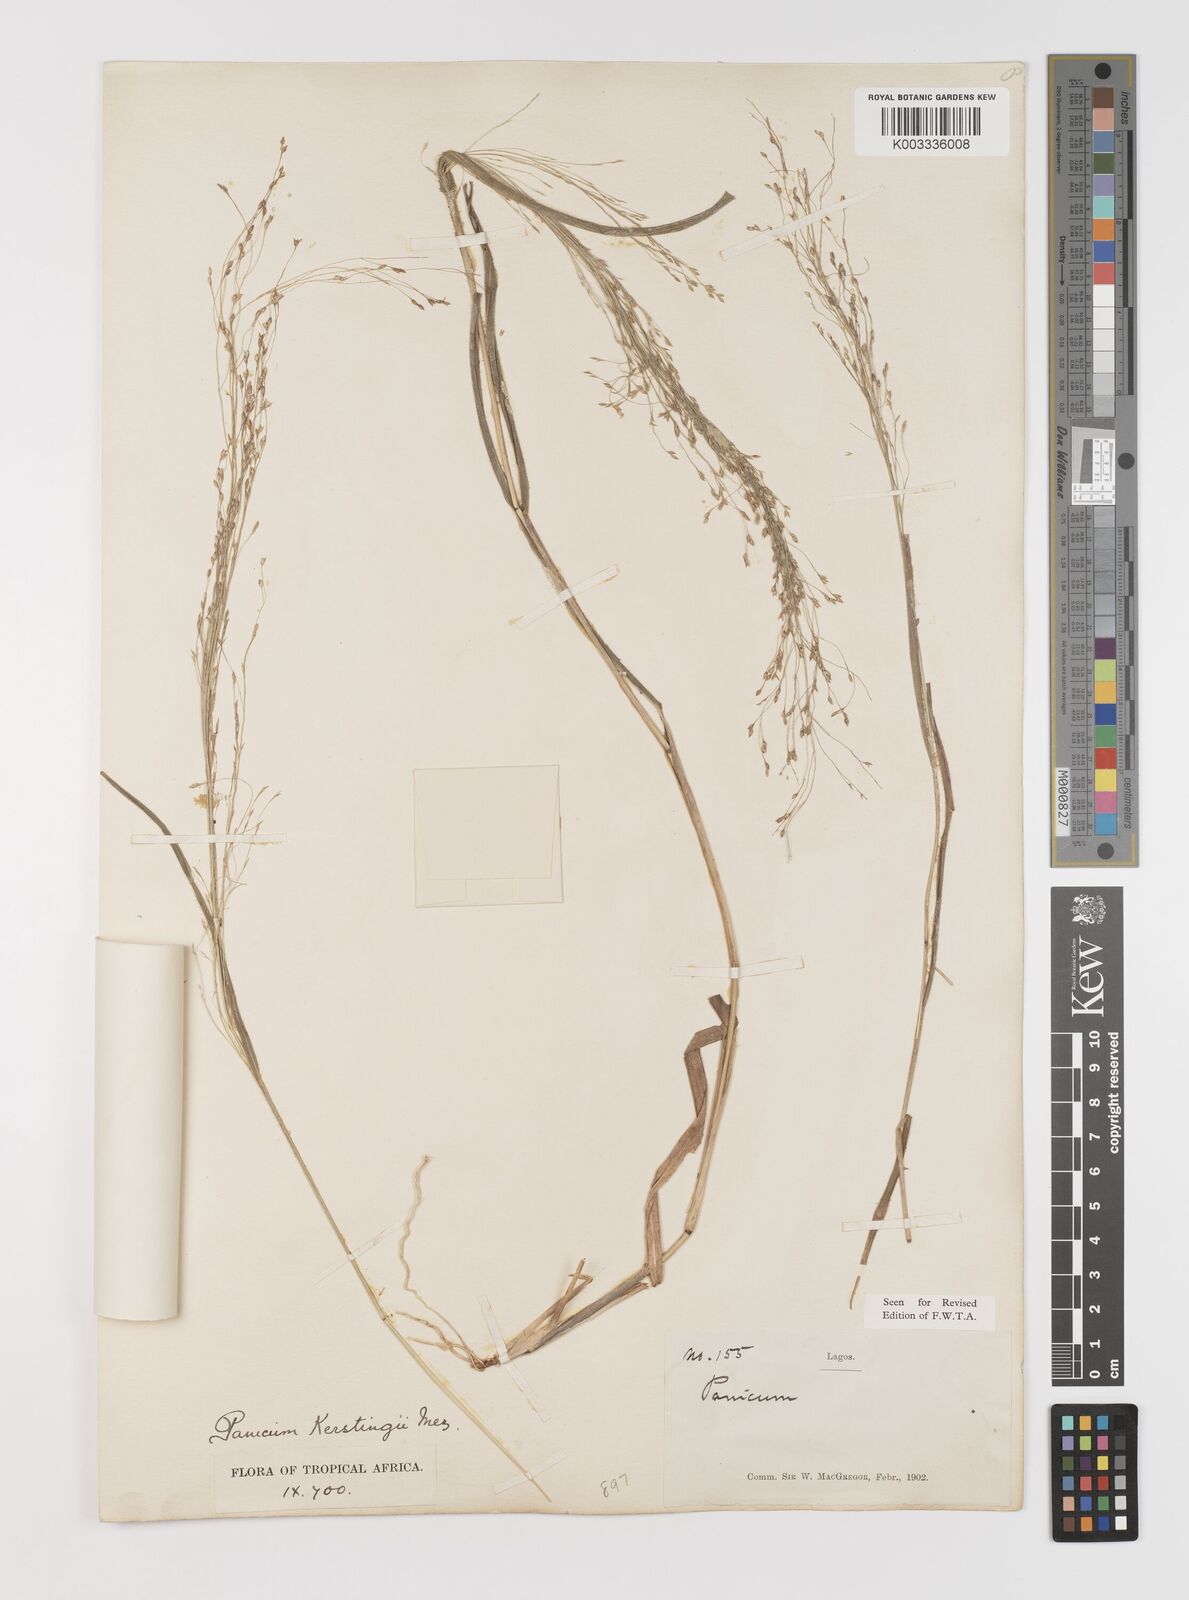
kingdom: Plantae
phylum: Tracheophyta
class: Liliopsida
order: Poales
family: Poaceae
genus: Panicum
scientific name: Panicum pansum
